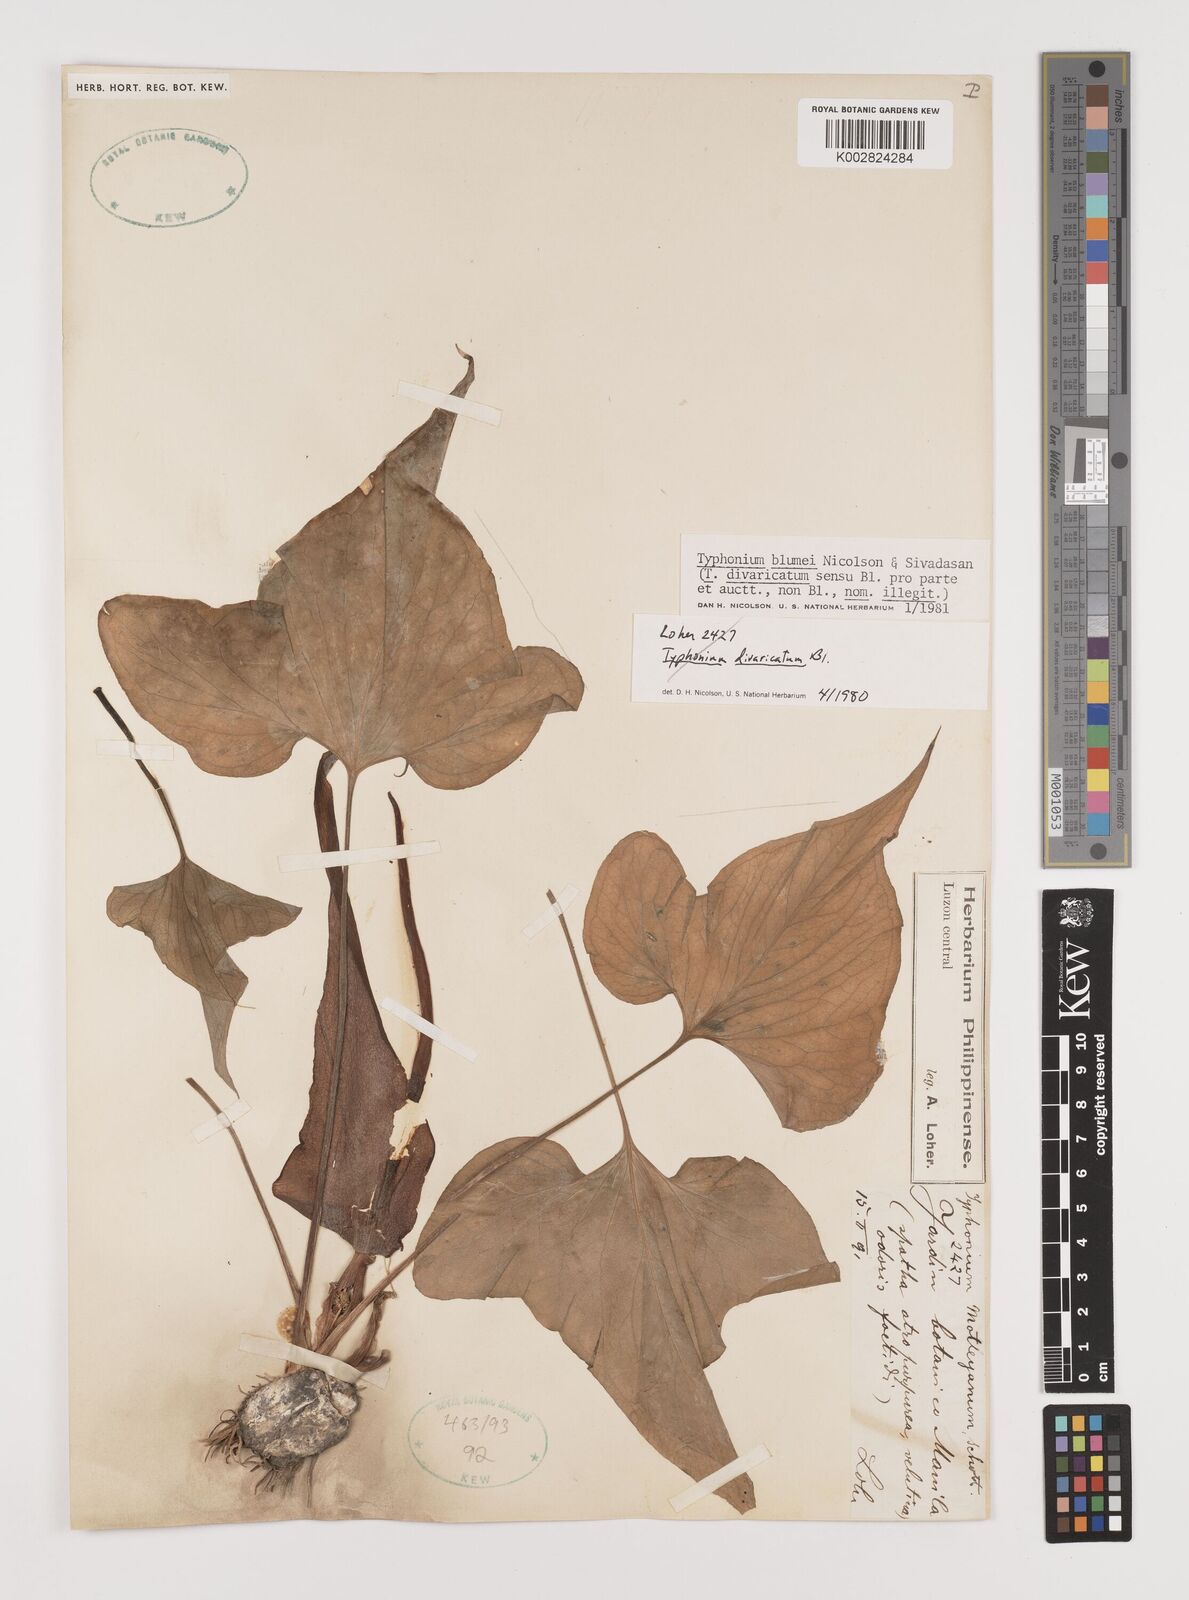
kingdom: Plantae
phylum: Tracheophyta
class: Liliopsida
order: Alismatales
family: Araceae
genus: Typhonium
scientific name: Typhonium blumei
